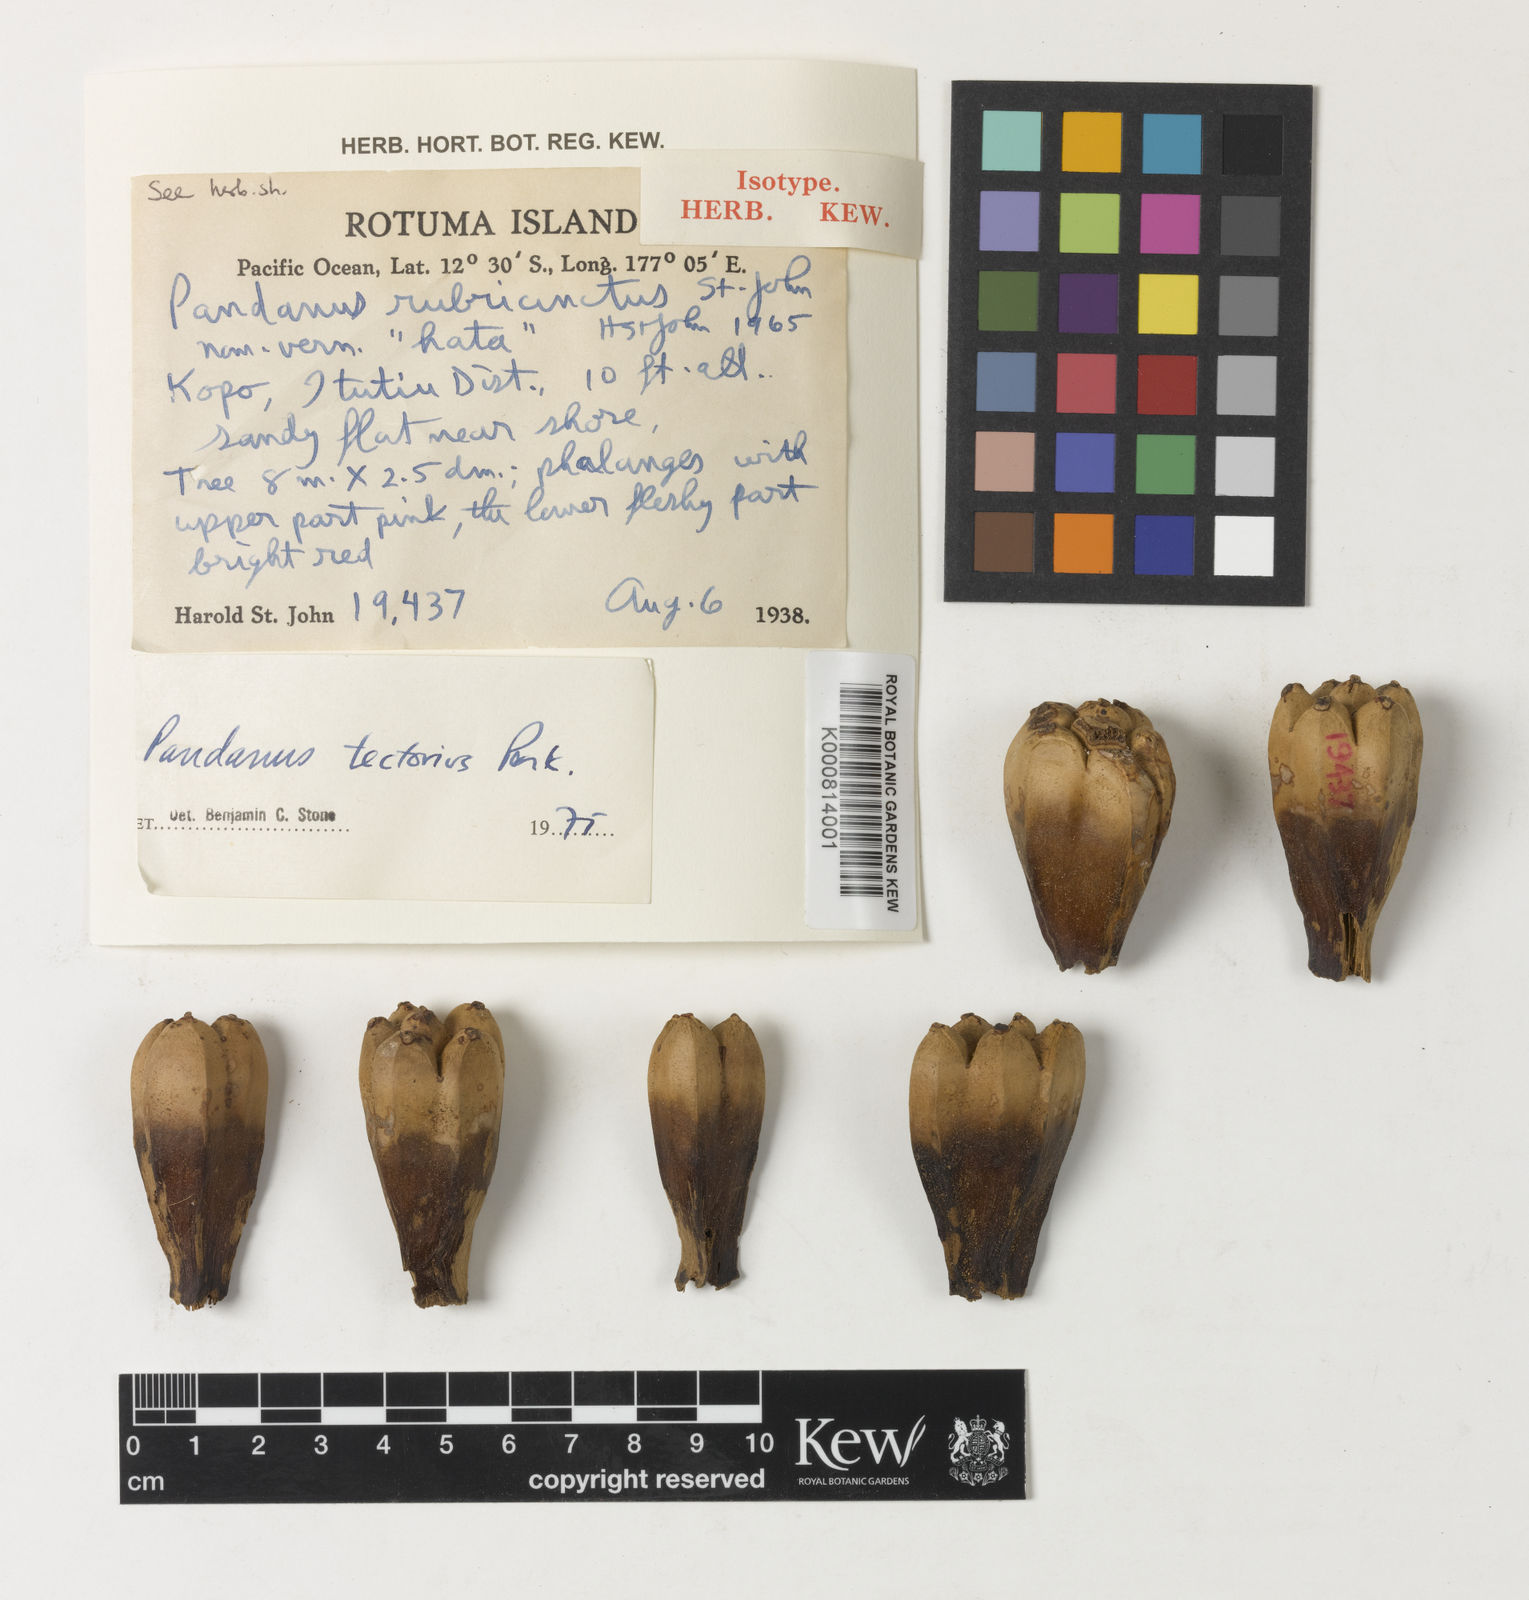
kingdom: Plantae
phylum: Tracheophyta
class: Liliopsida
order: Pandanales
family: Pandanaceae
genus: Pandanus
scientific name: Pandanus
